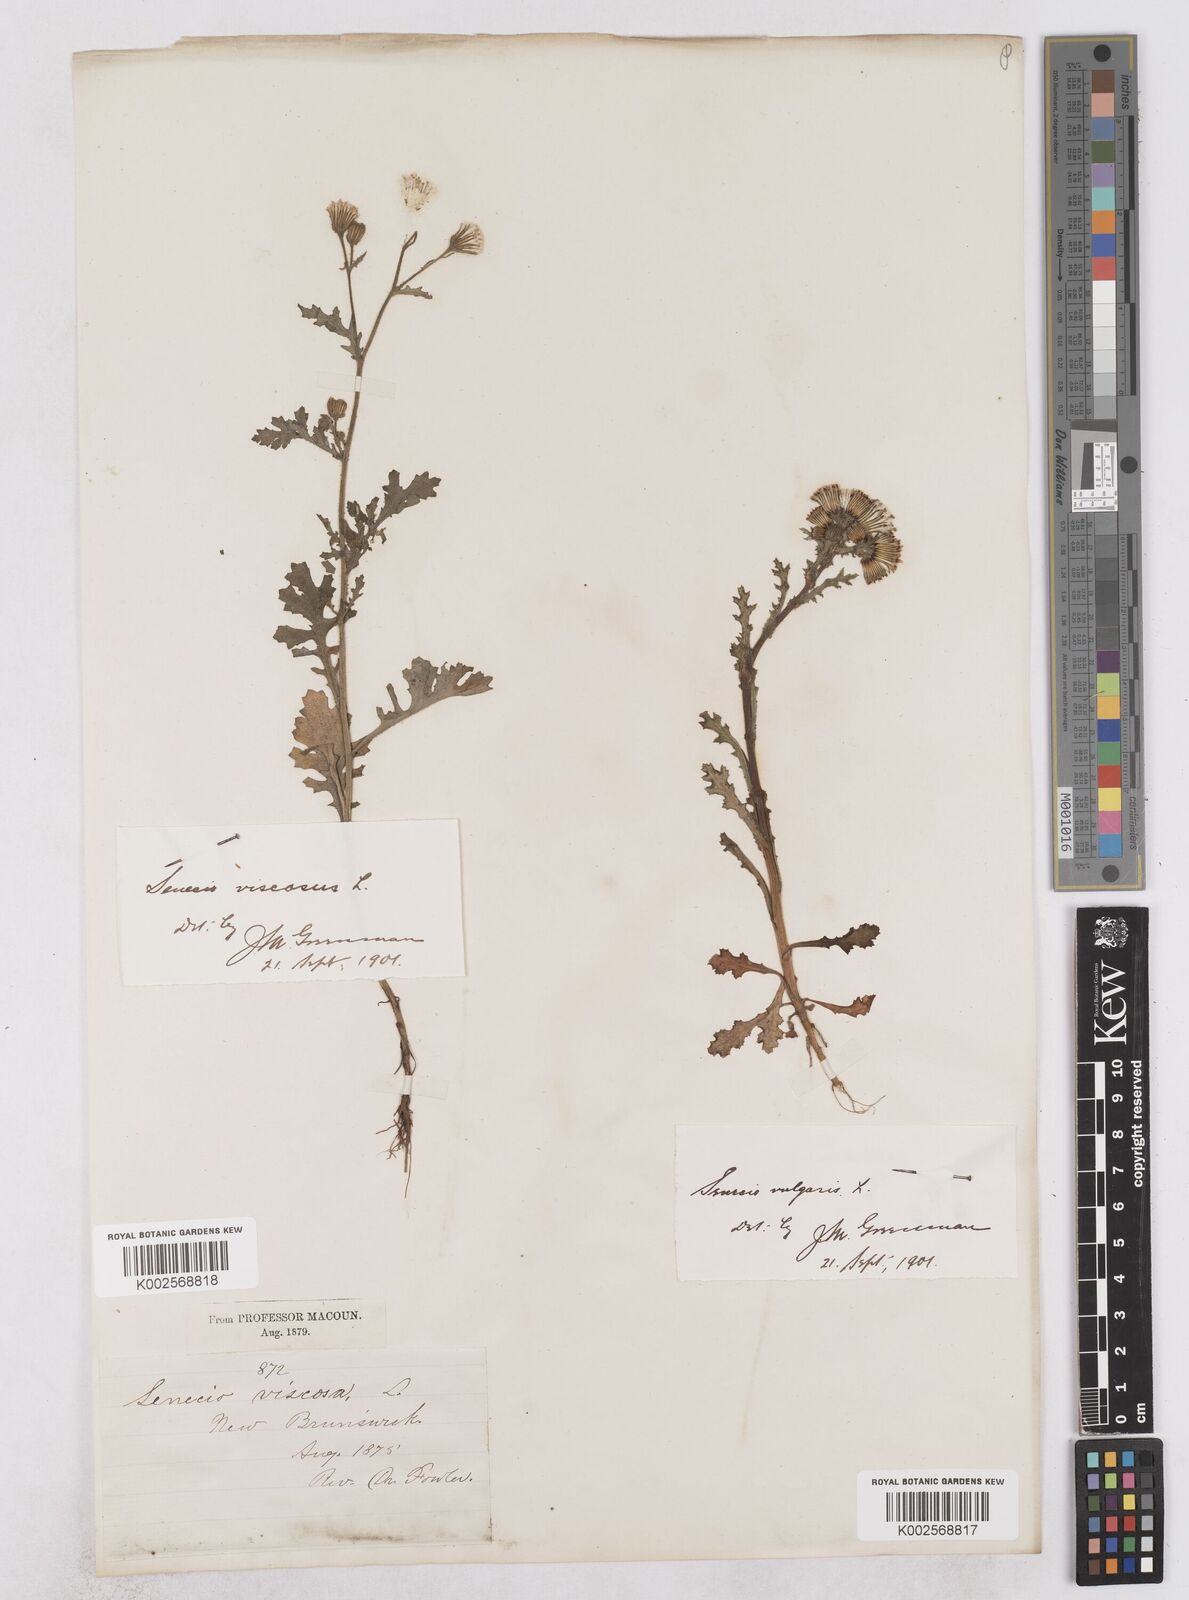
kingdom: Plantae
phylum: Tracheophyta
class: Magnoliopsida
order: Asterales
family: Asteraceae
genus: Senecio
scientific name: Senecio viscosus
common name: Sticky groundsel
